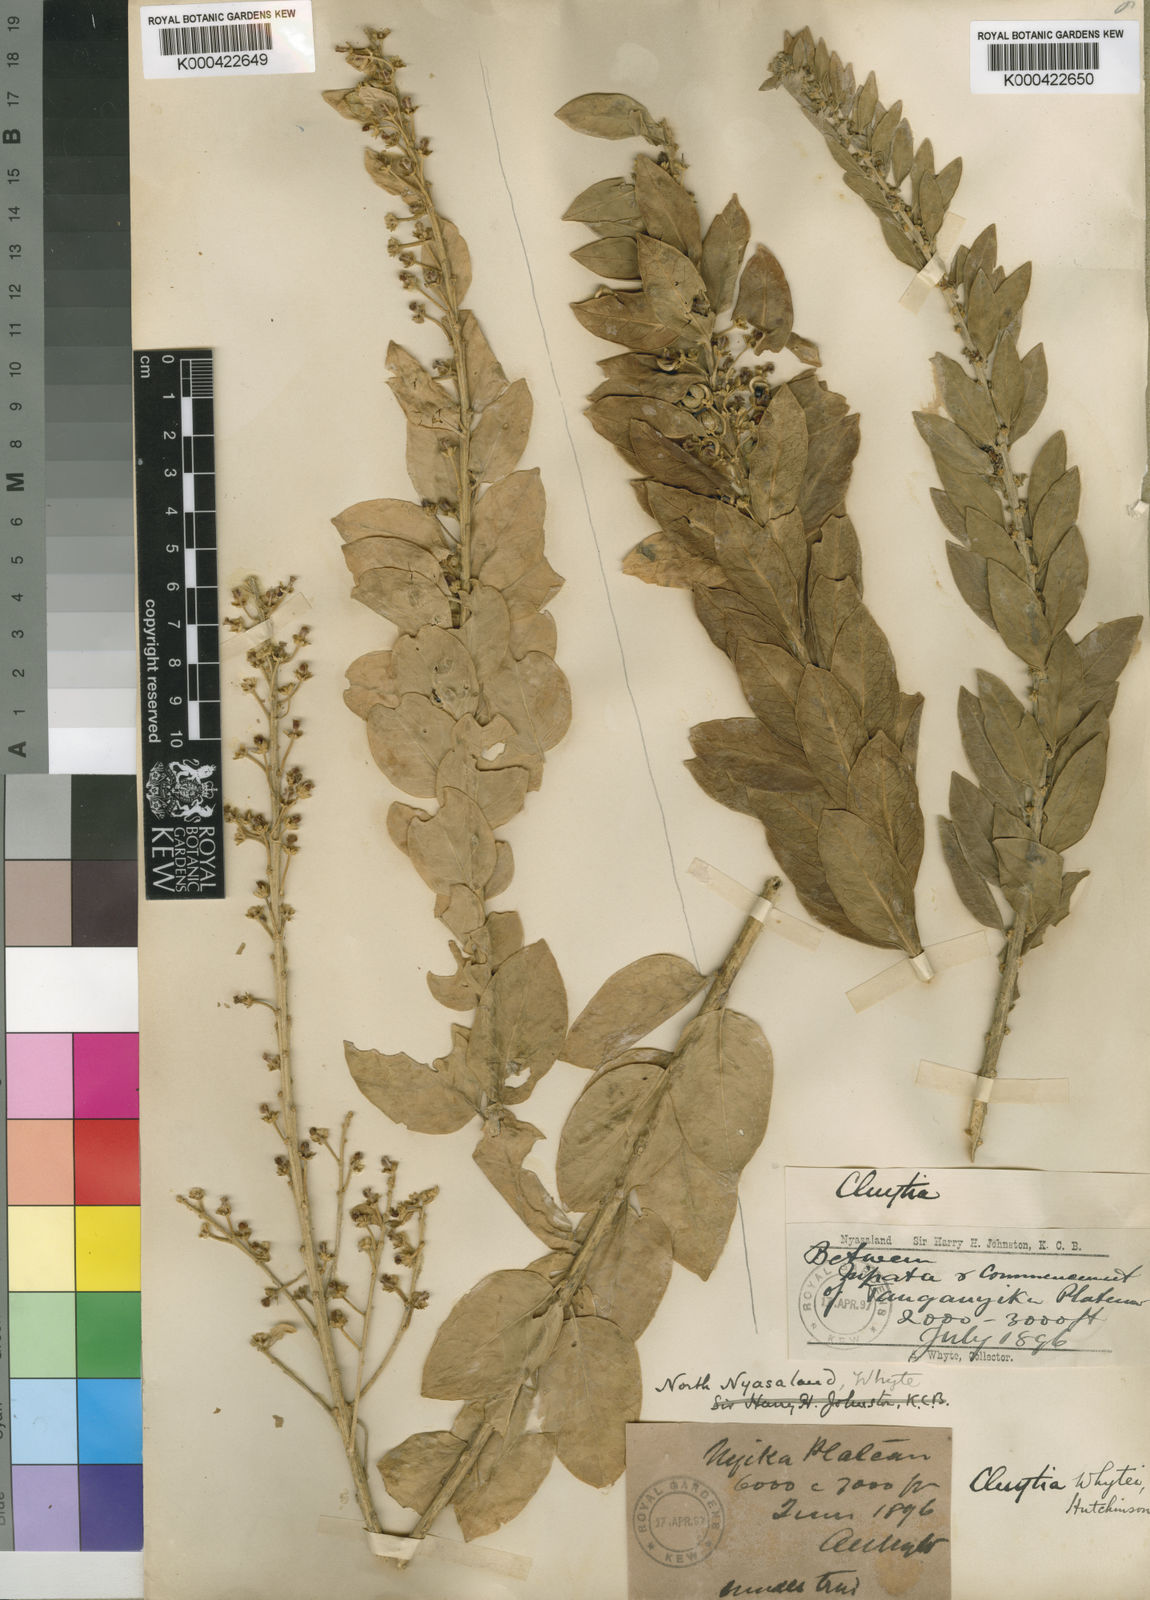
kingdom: Plantae
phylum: Tracheophyta
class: Magnoliopsida
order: Malpighiales
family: Peraceae
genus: Clutia
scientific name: Clutia whytei
